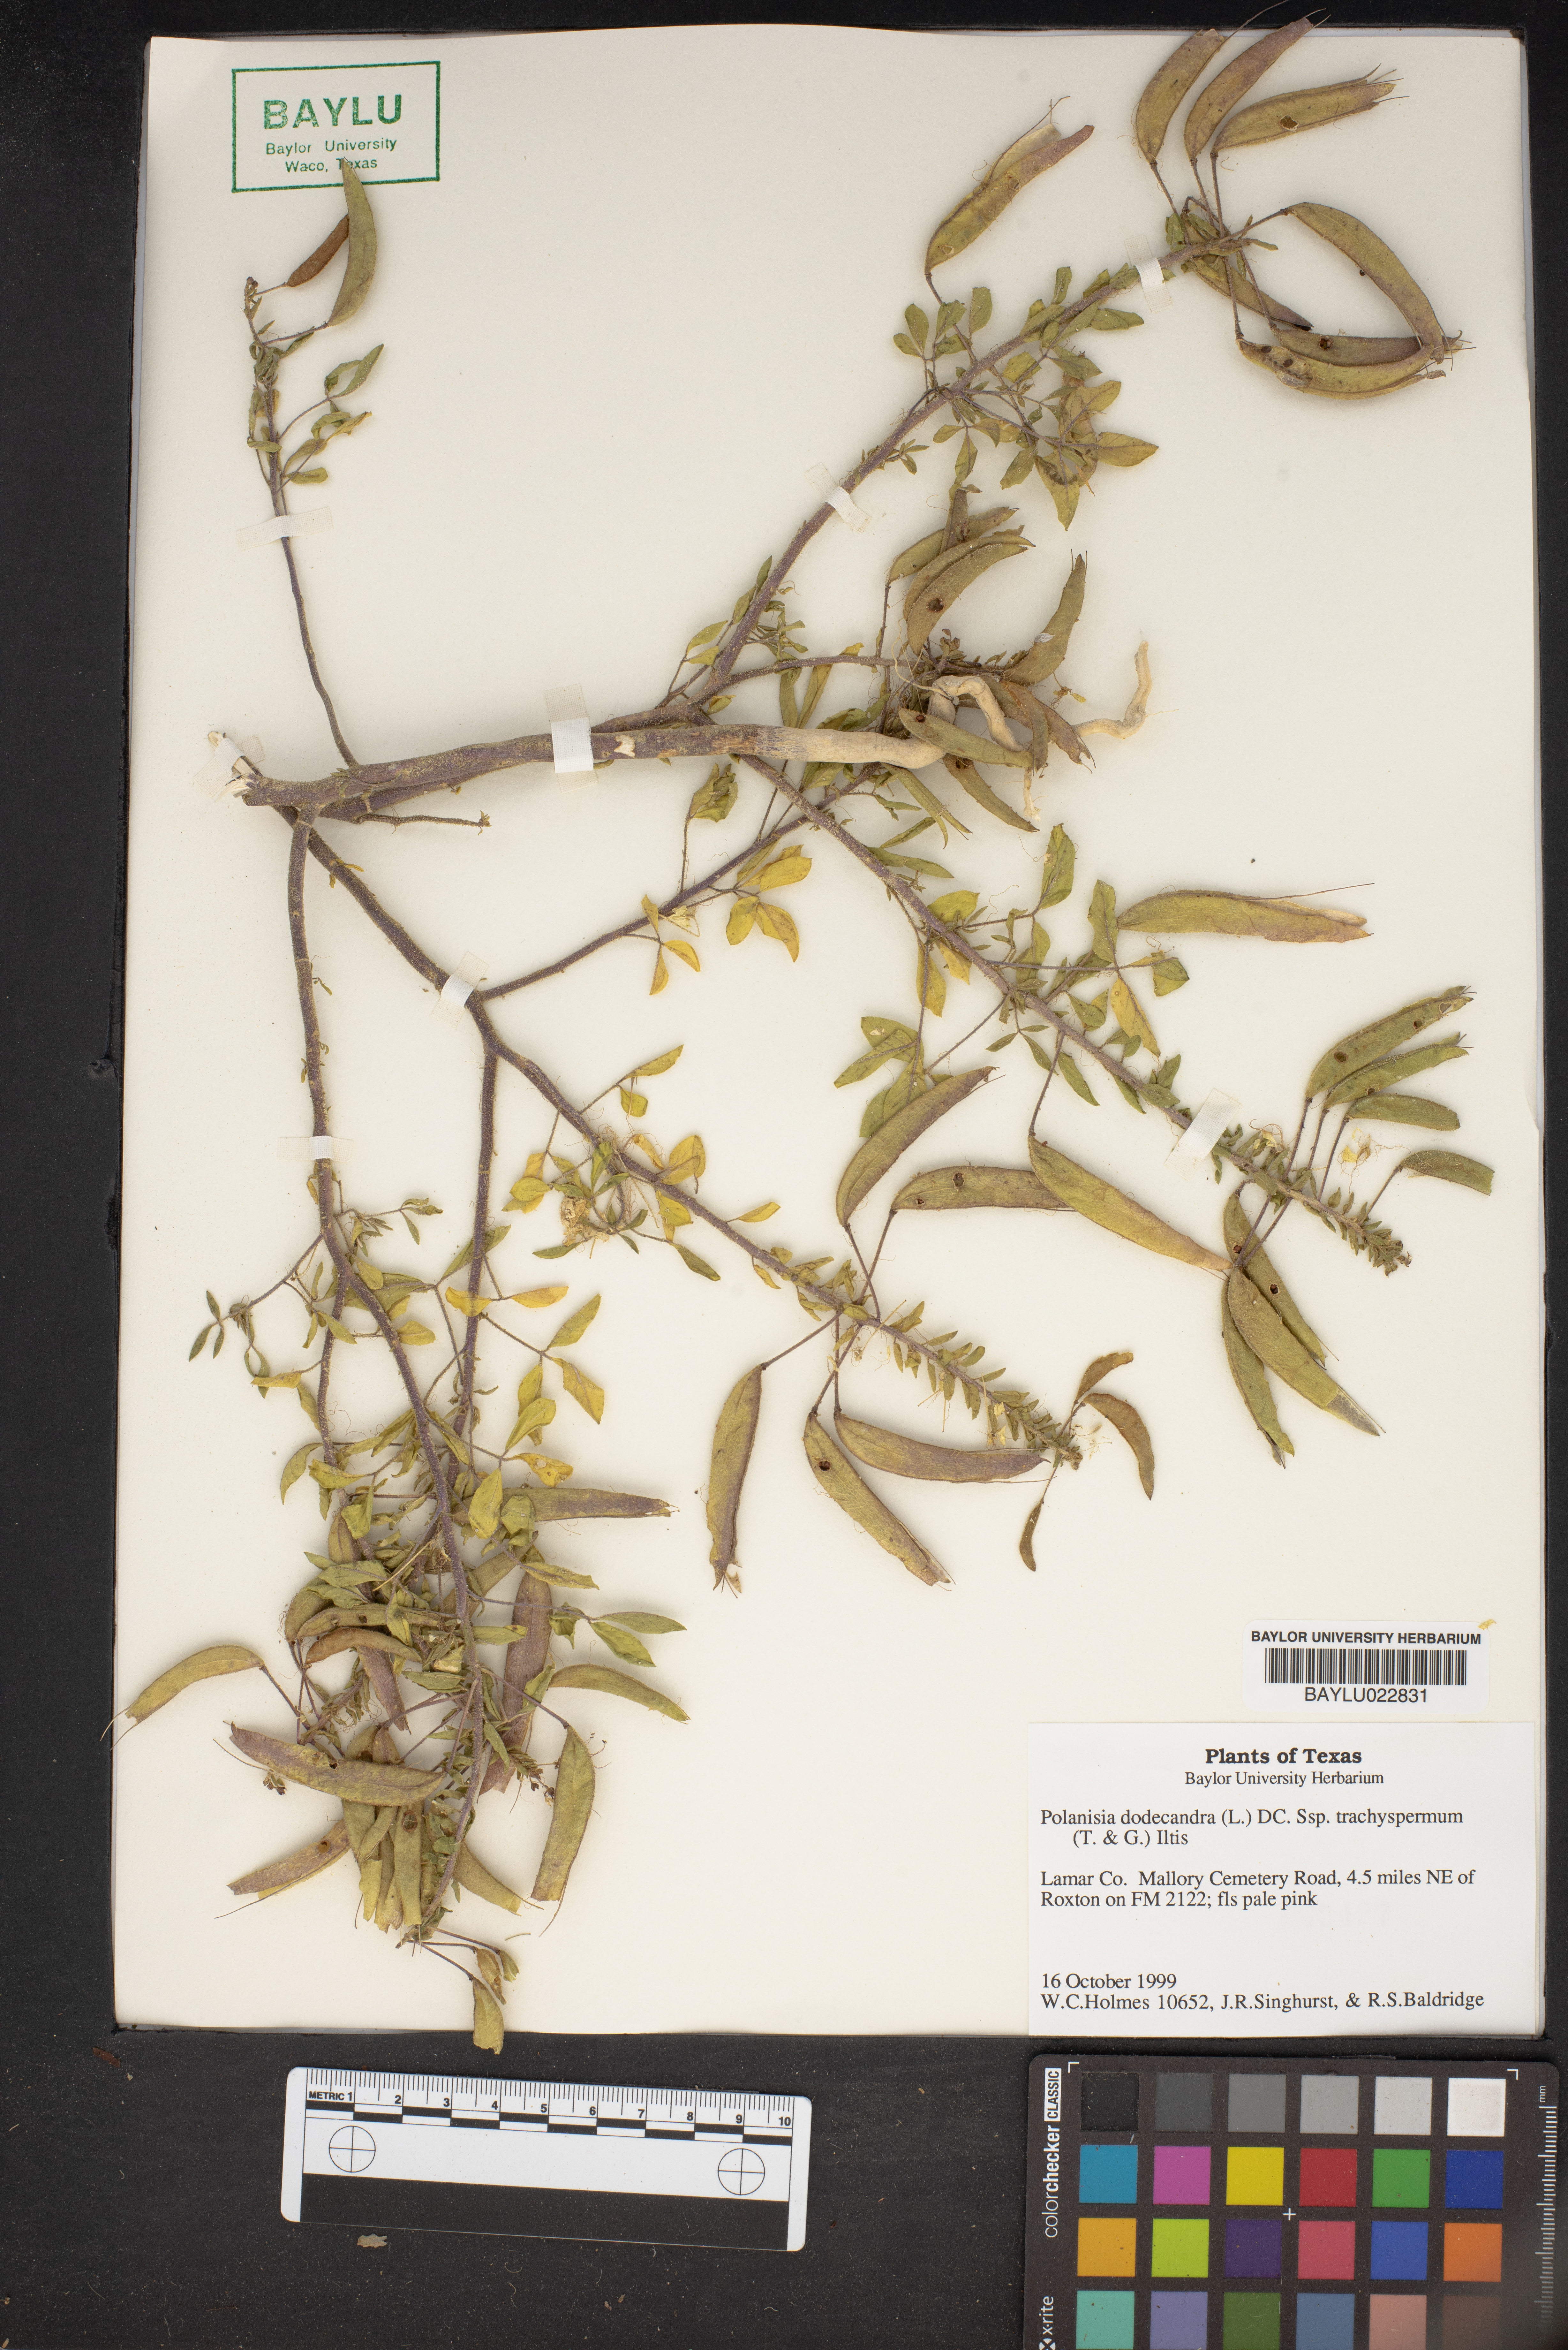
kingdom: Plantae
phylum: Tracheophyta
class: Magnoliopsida
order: Brassicales
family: Cleomaceae
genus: Polanisia
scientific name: Polanisia trachysperma
